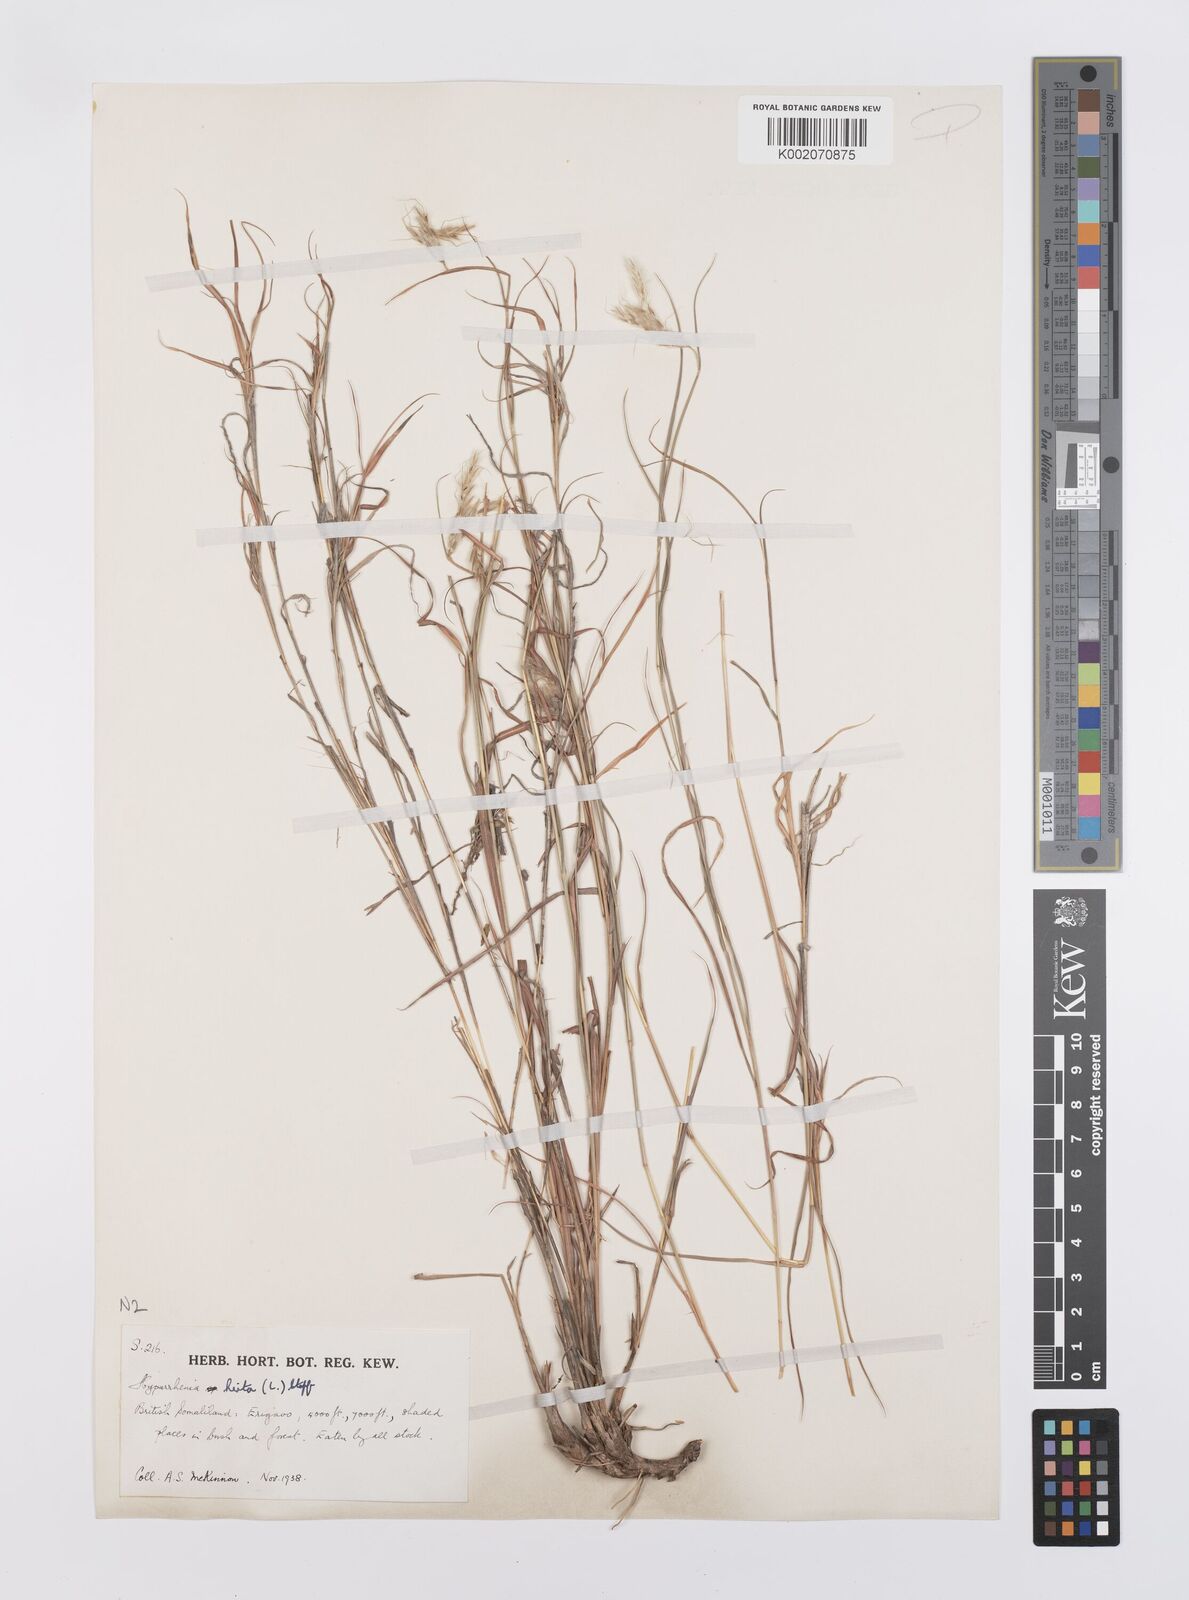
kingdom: Plantae
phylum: Tracheophyta
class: Liliopsida
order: Poales
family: Poaceae
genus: Hyparrhenia
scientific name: Hyparrhenia hirta
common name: Thatching grass
